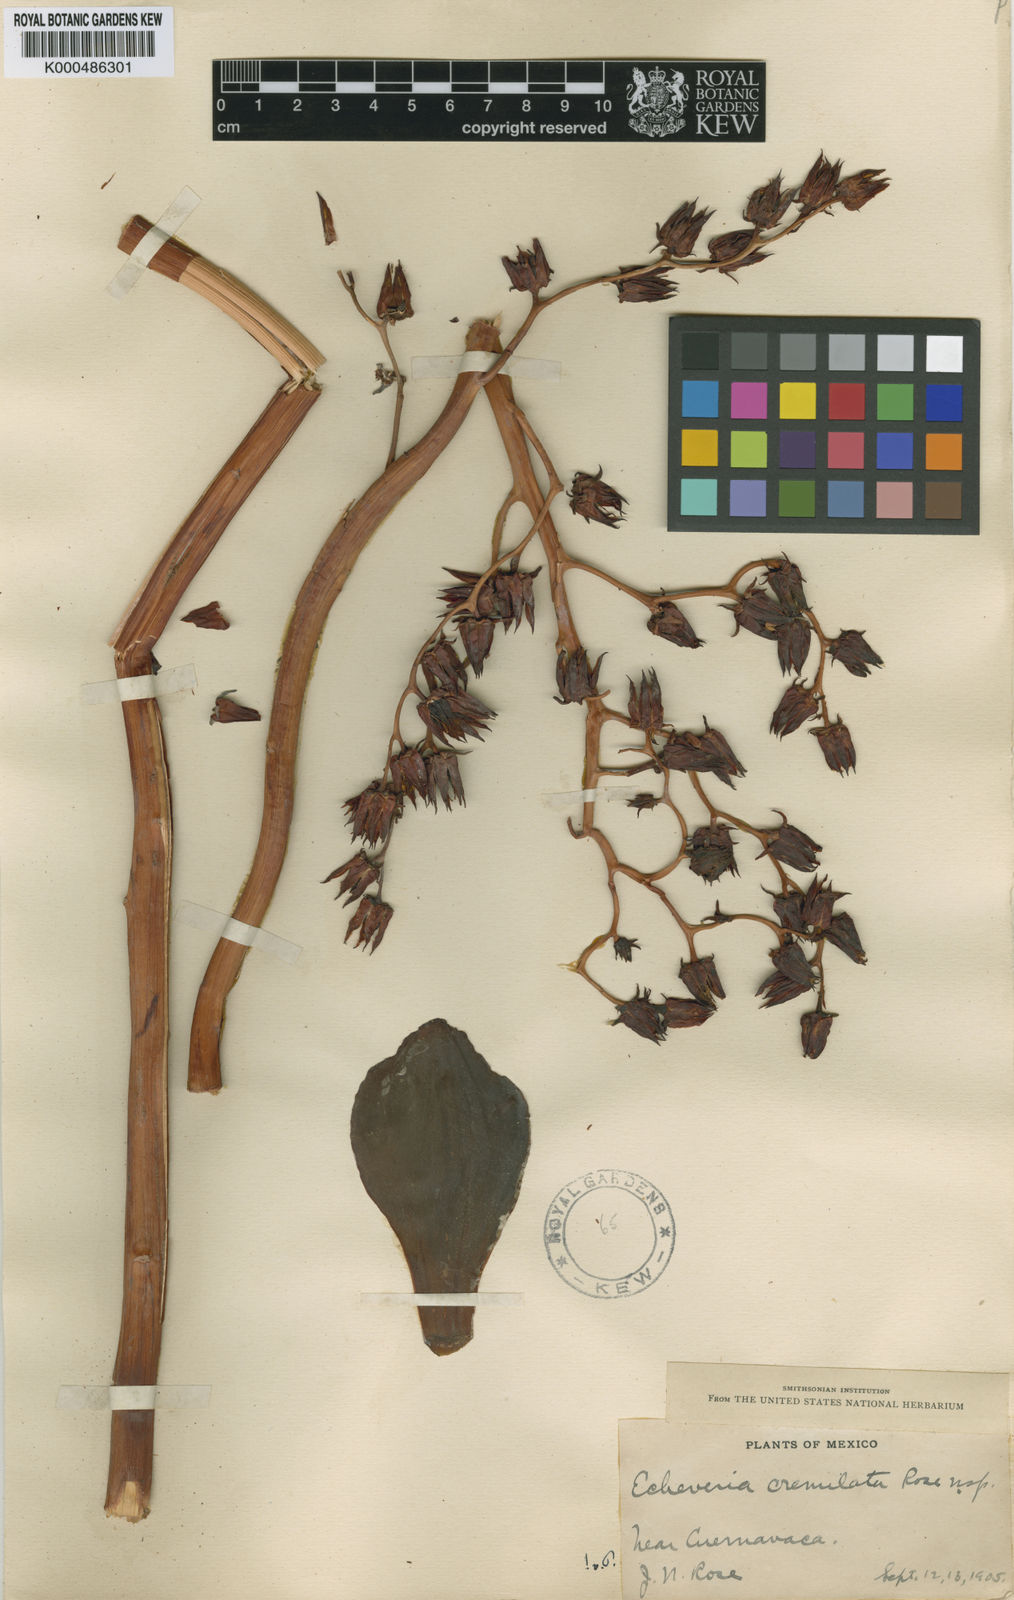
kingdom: Plantae
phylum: Tracheophyta
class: Magnoliopsida
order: Saxifragales
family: Crassulaceae
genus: Dudleya
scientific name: Dudleya
